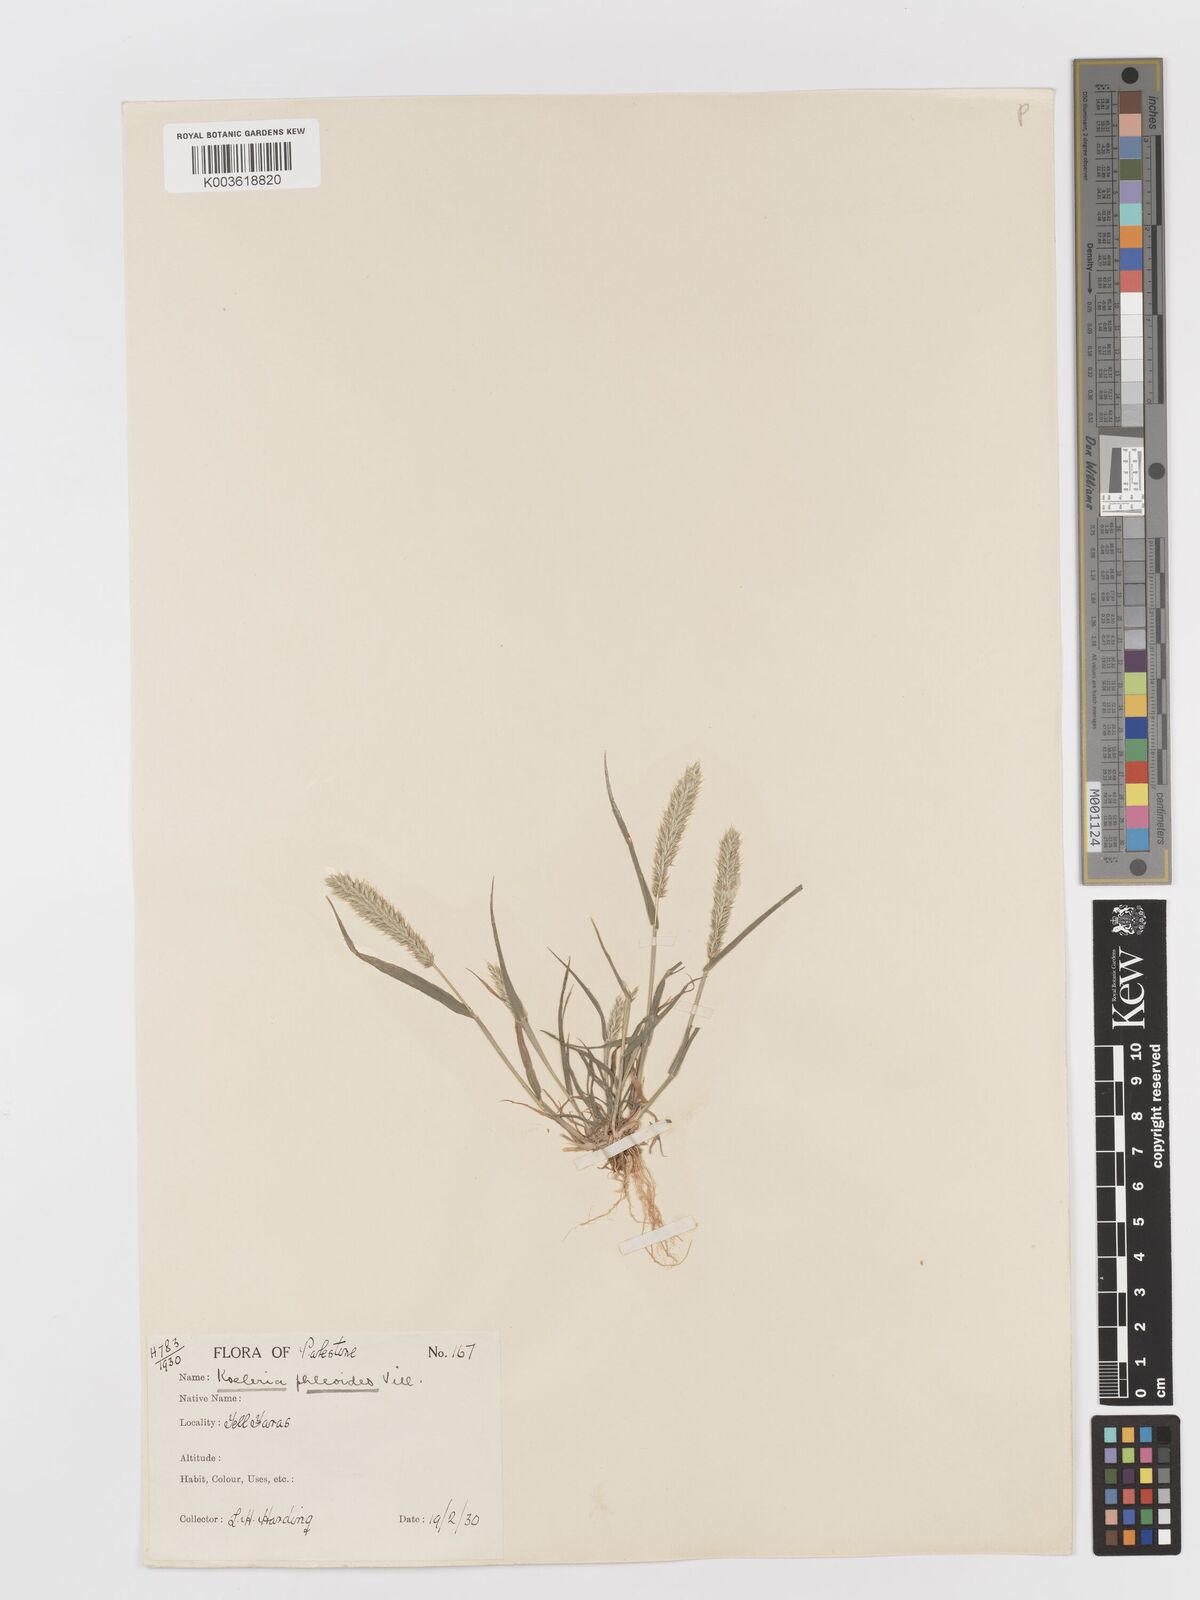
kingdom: Plantae
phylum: Tracheophyta
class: Liliopsida
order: Poales
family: Poaceae
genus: Rostraria
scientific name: Rostraria cristata
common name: Mediterranean hair-grass
